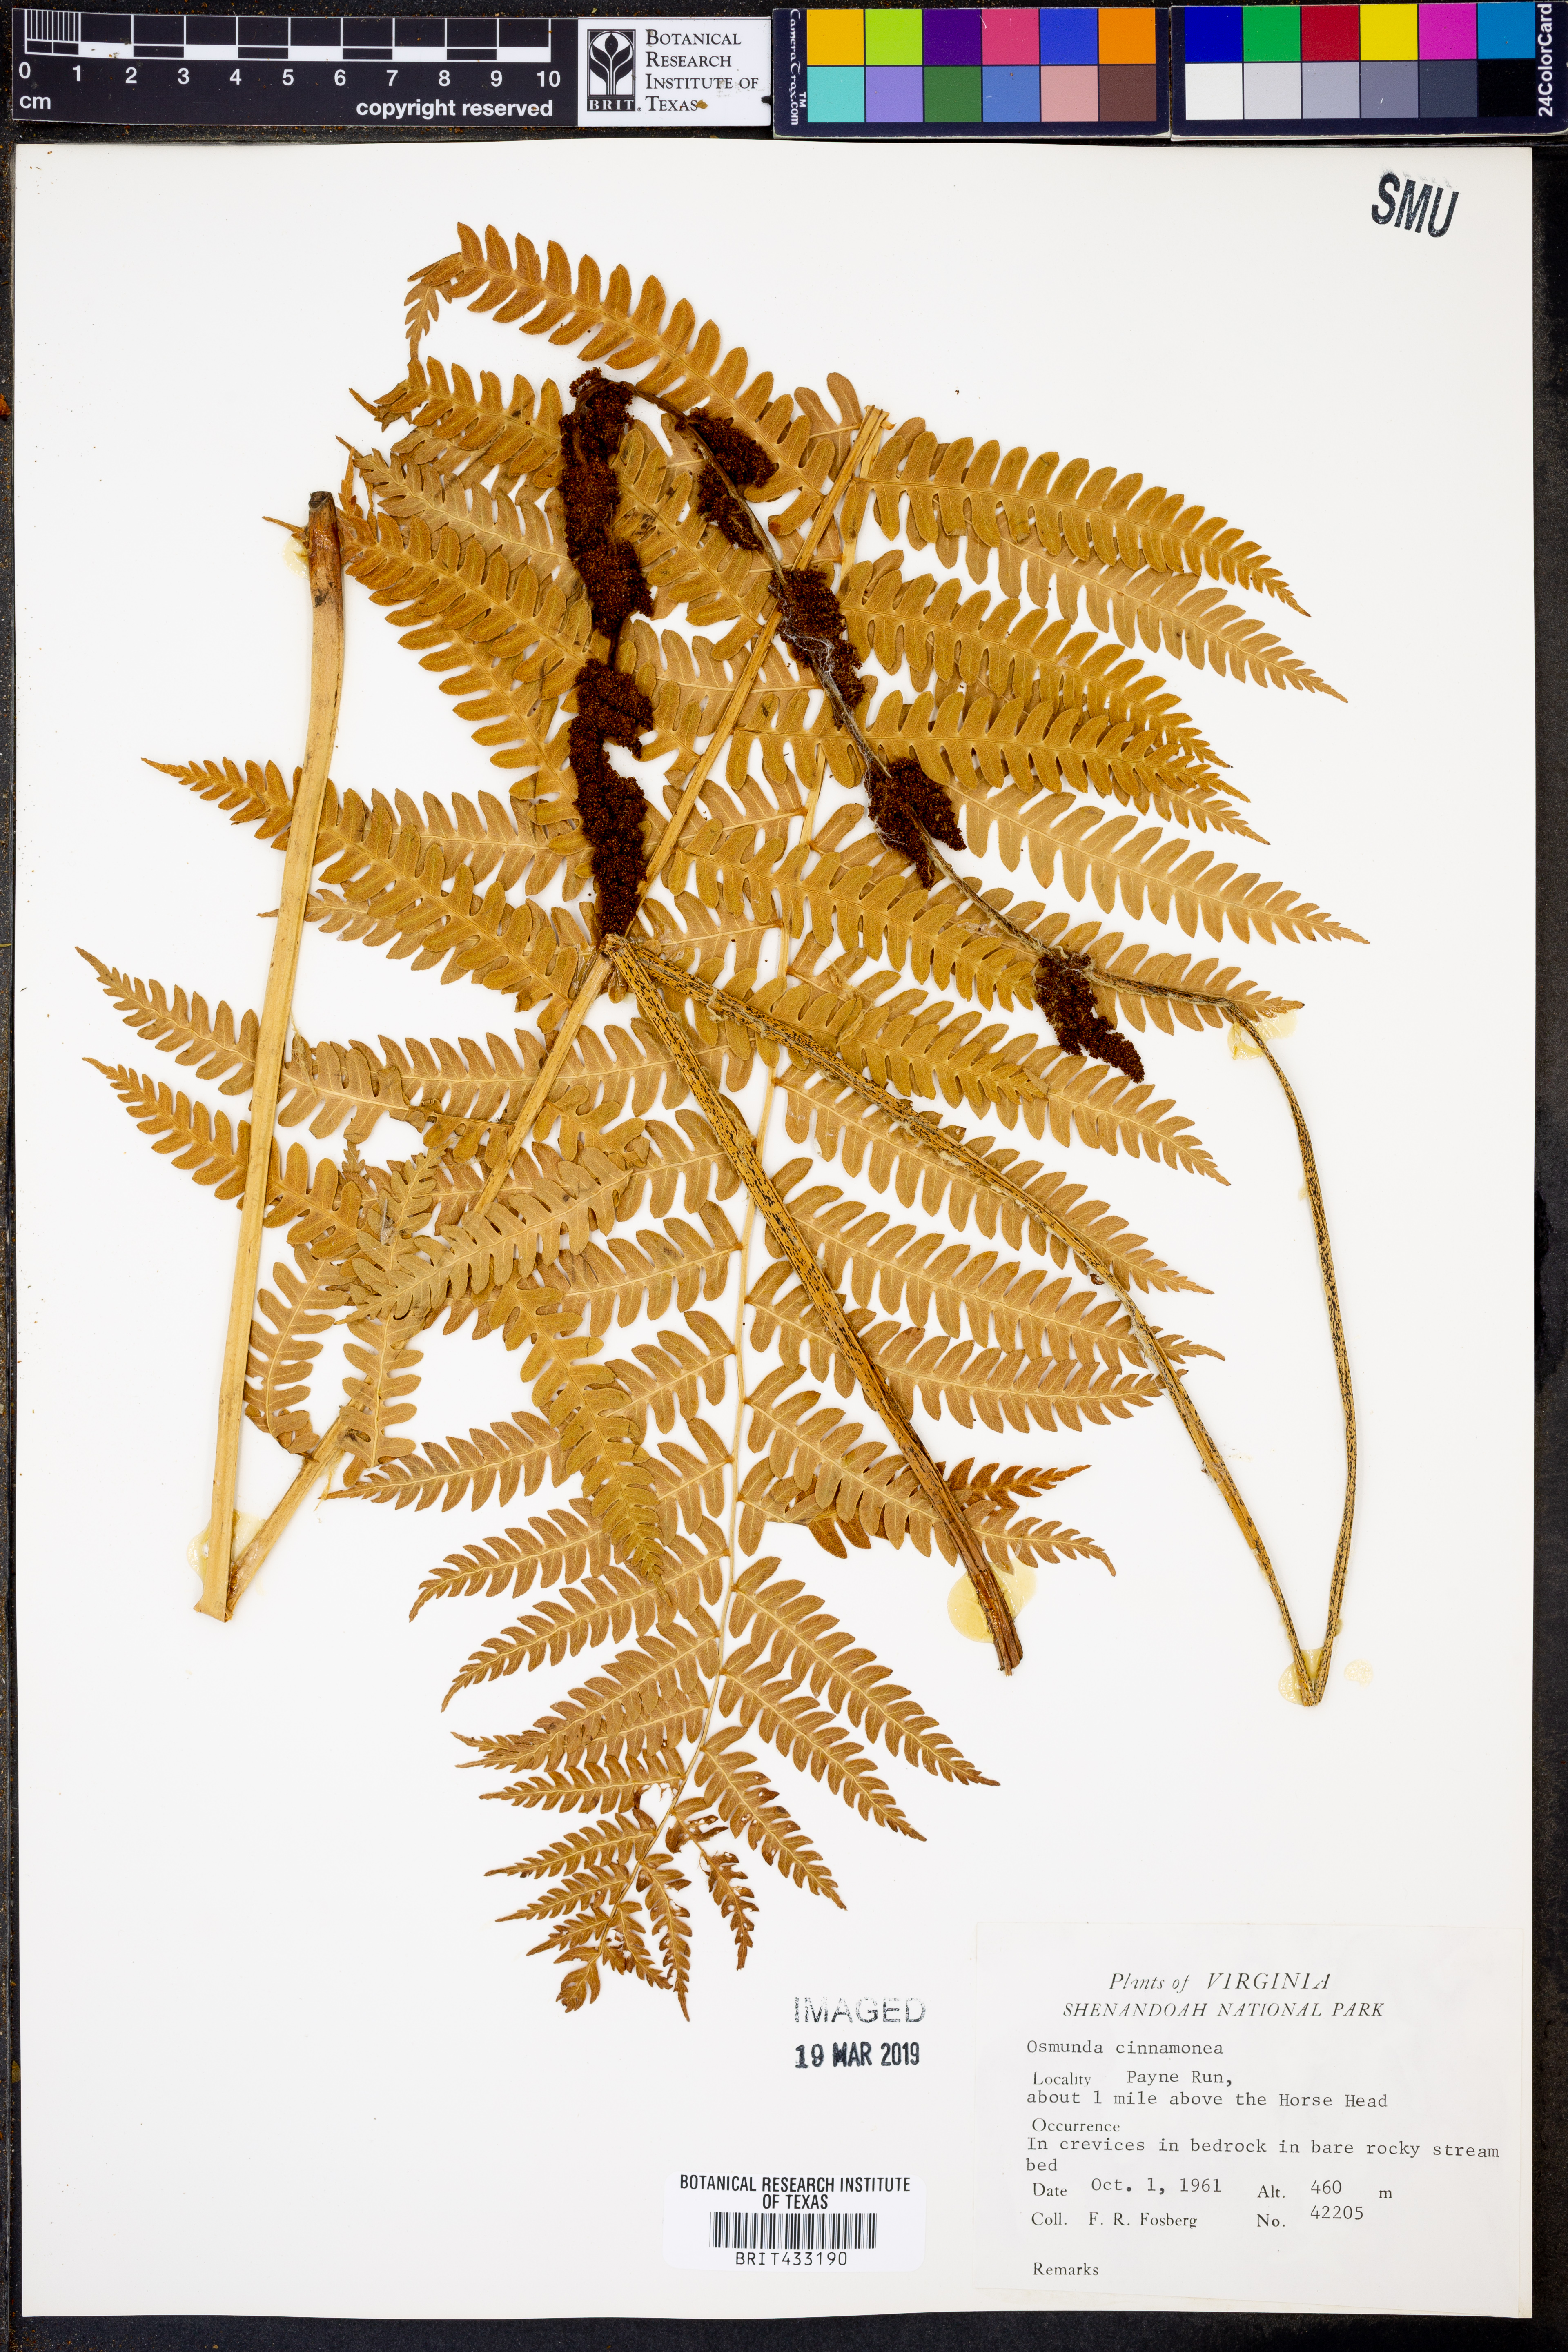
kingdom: Plantae
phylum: Tracheophyta
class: Polypodiopsida
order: Osmundales
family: Osmundaceae
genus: Osmundastrum
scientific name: Osmundastrum cinnamomeum
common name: Cinnamon fern
